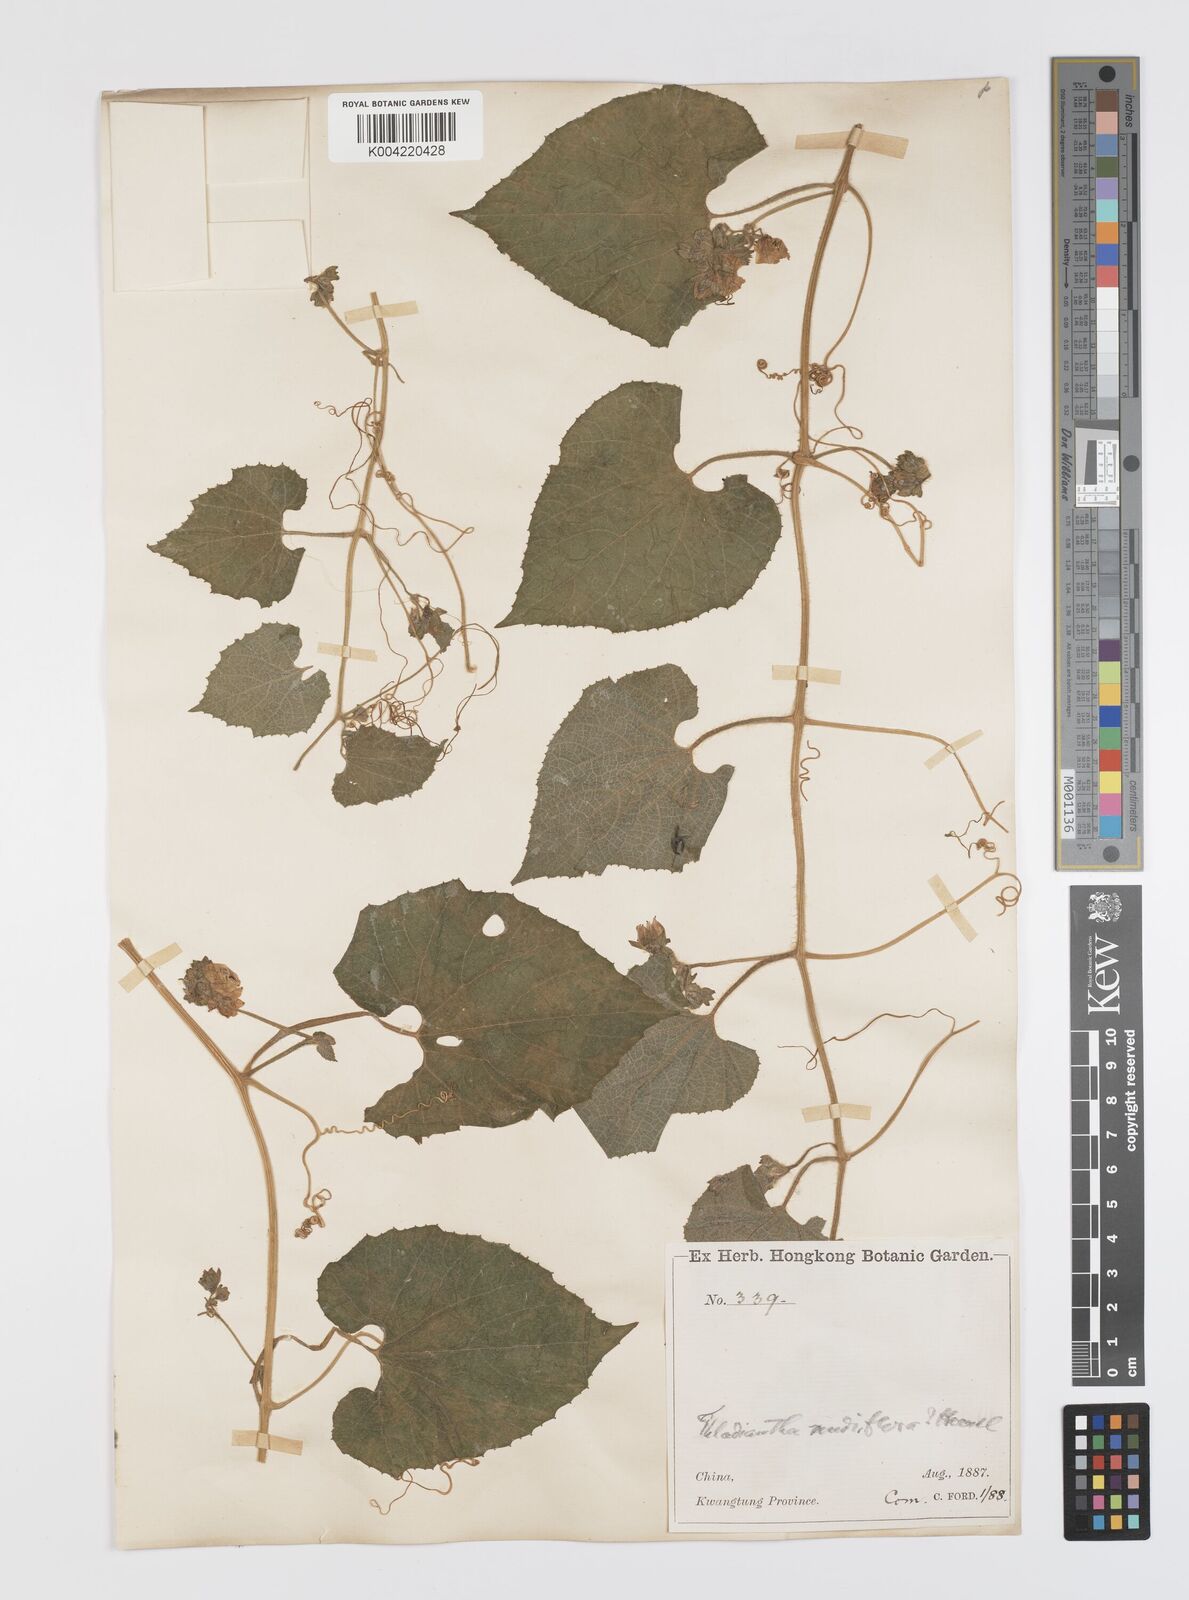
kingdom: Plantae
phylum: Tracheophyta
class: Magnoliopsida
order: Cucurbitales
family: Cucurbitaceae
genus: Thladiantha
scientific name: Thladiantha nudiflora
